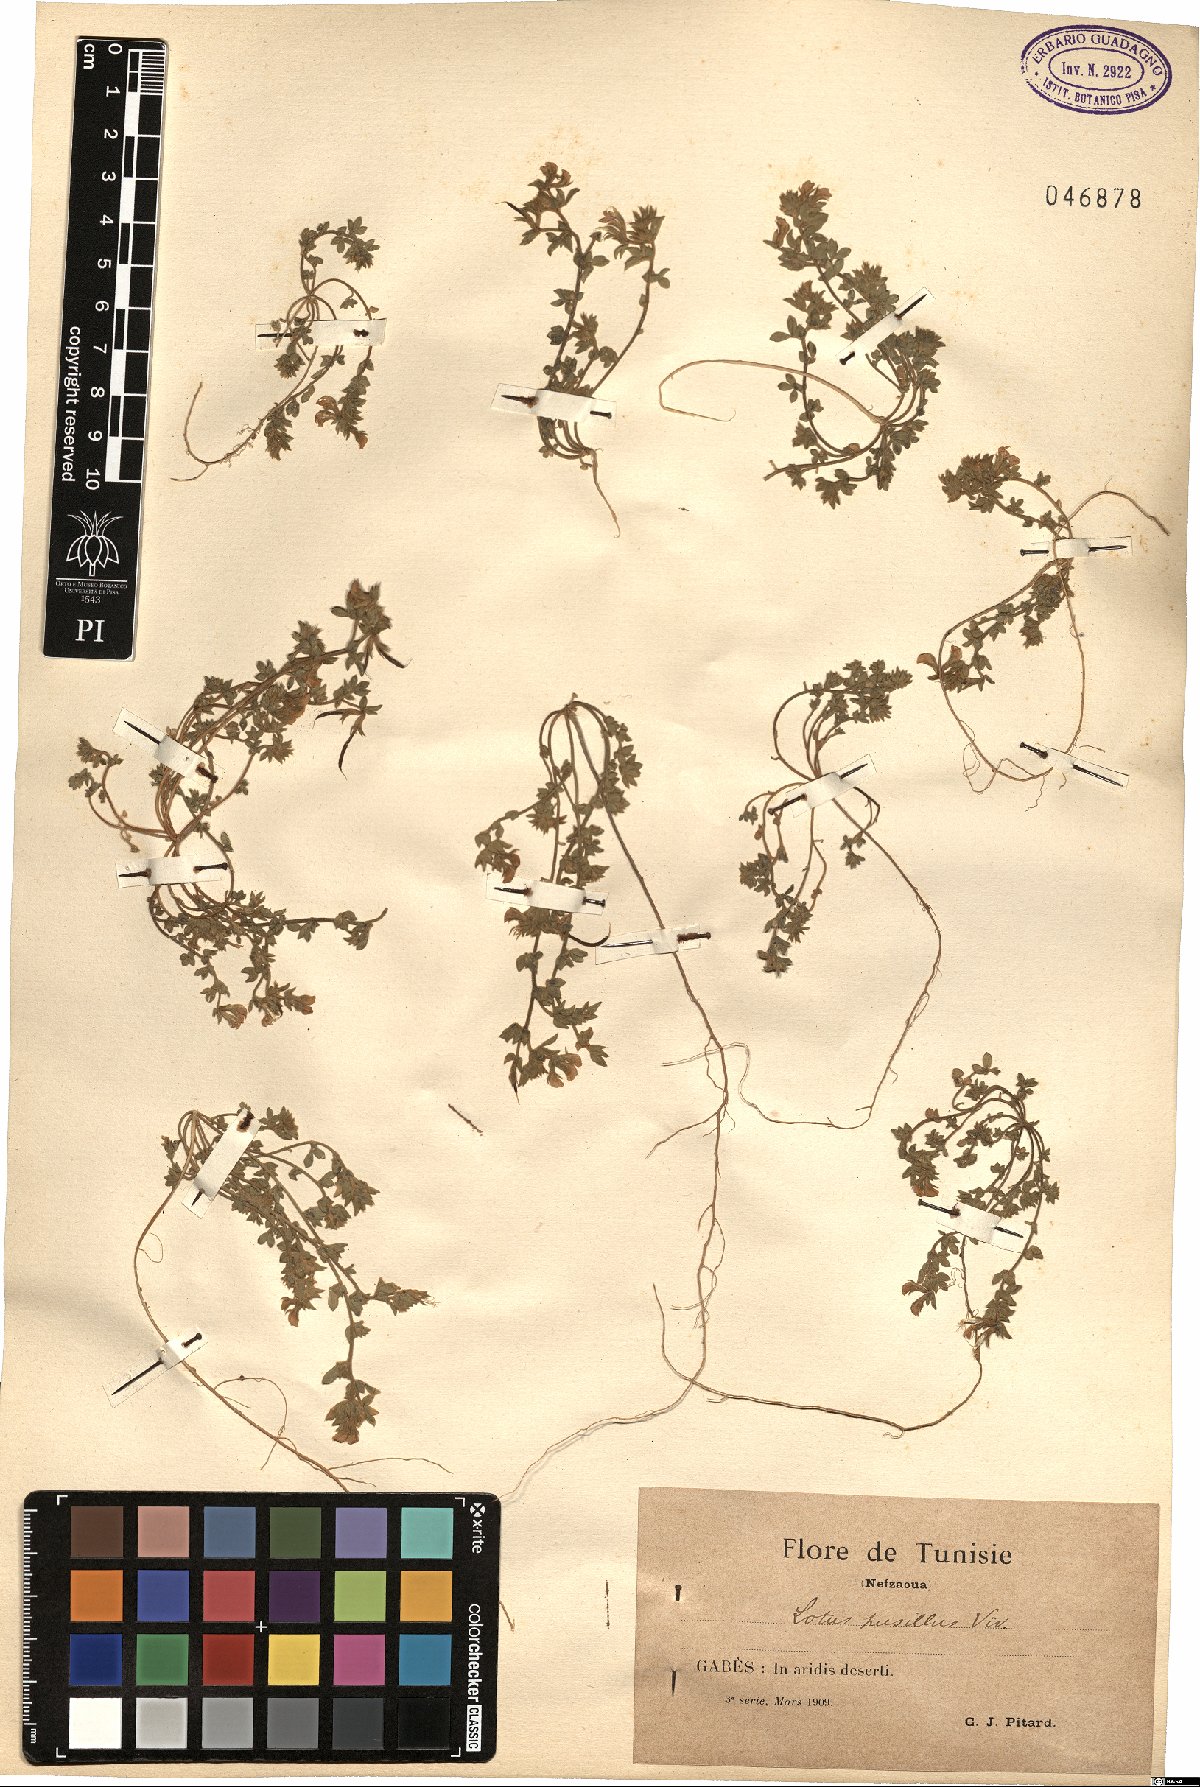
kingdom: Plantae
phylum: Tracheophyta
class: Magnoliopsida
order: Fabales
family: Fabaceae
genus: Lotus
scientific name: Lotus halophilus
